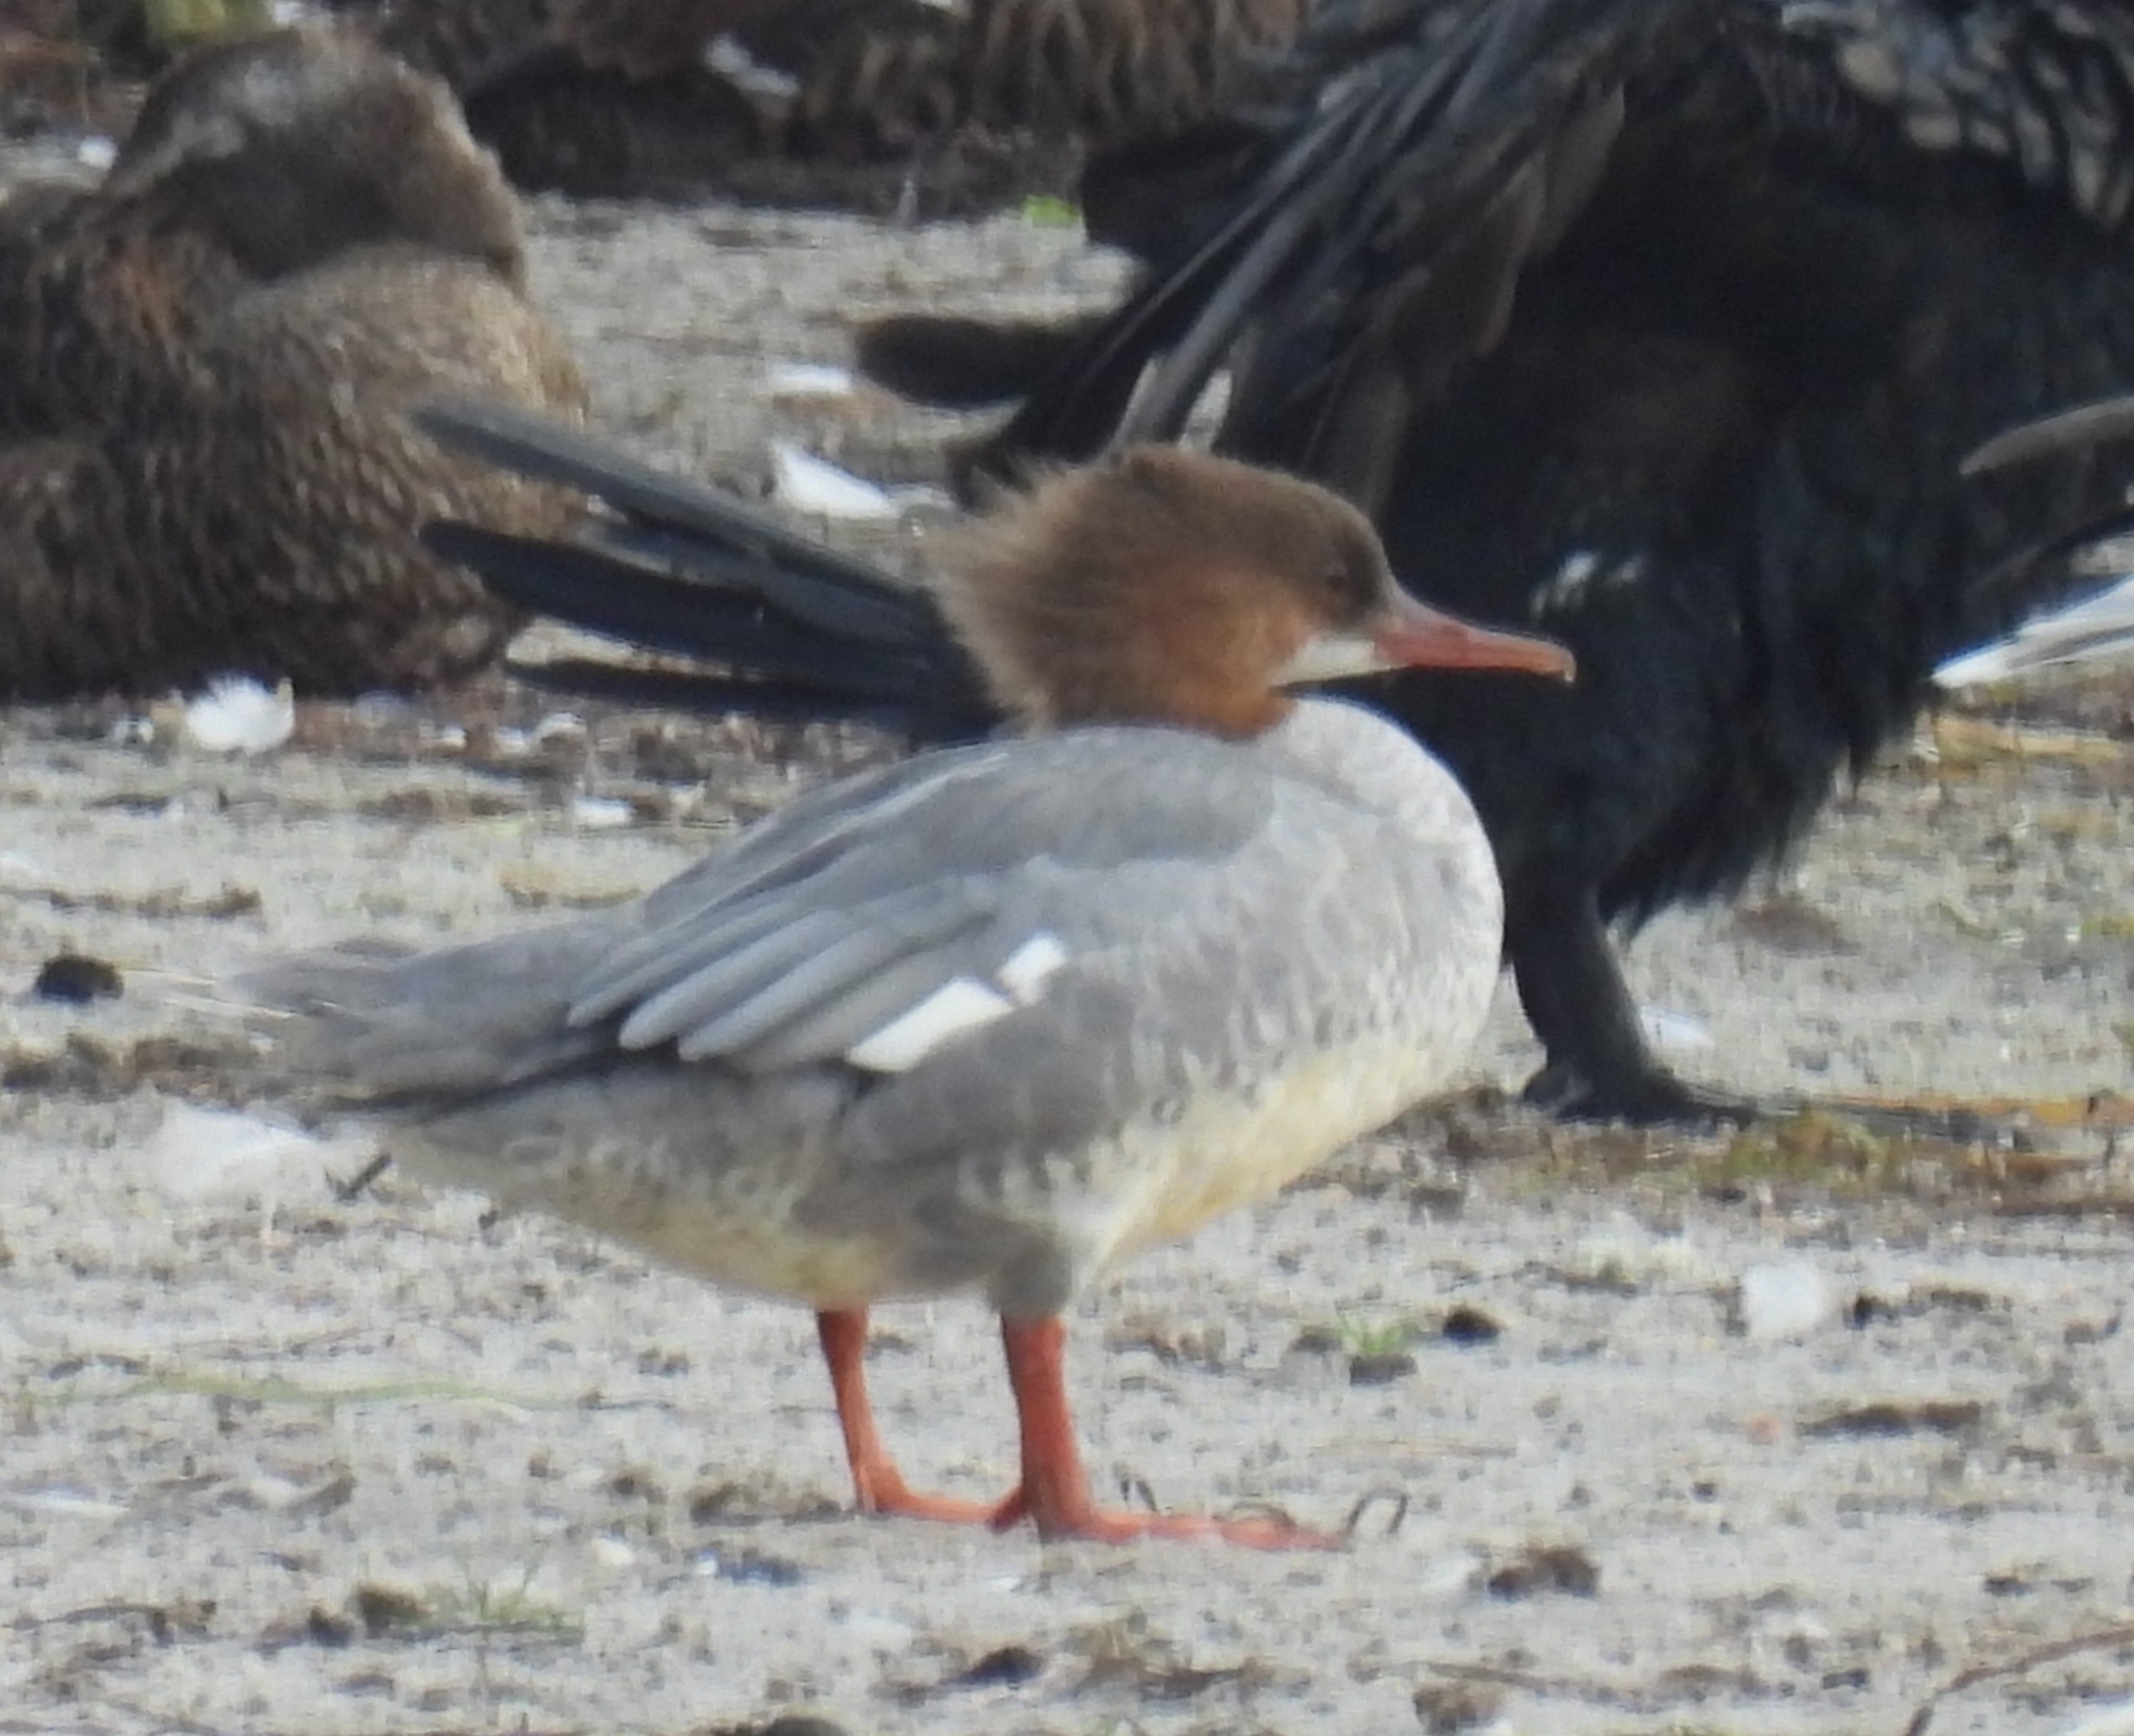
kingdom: Animalia
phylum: Chordata
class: Aves
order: Anseriformes
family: Anatidae
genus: Mergus
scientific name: Mergus merganser
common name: Stor skallesluger
